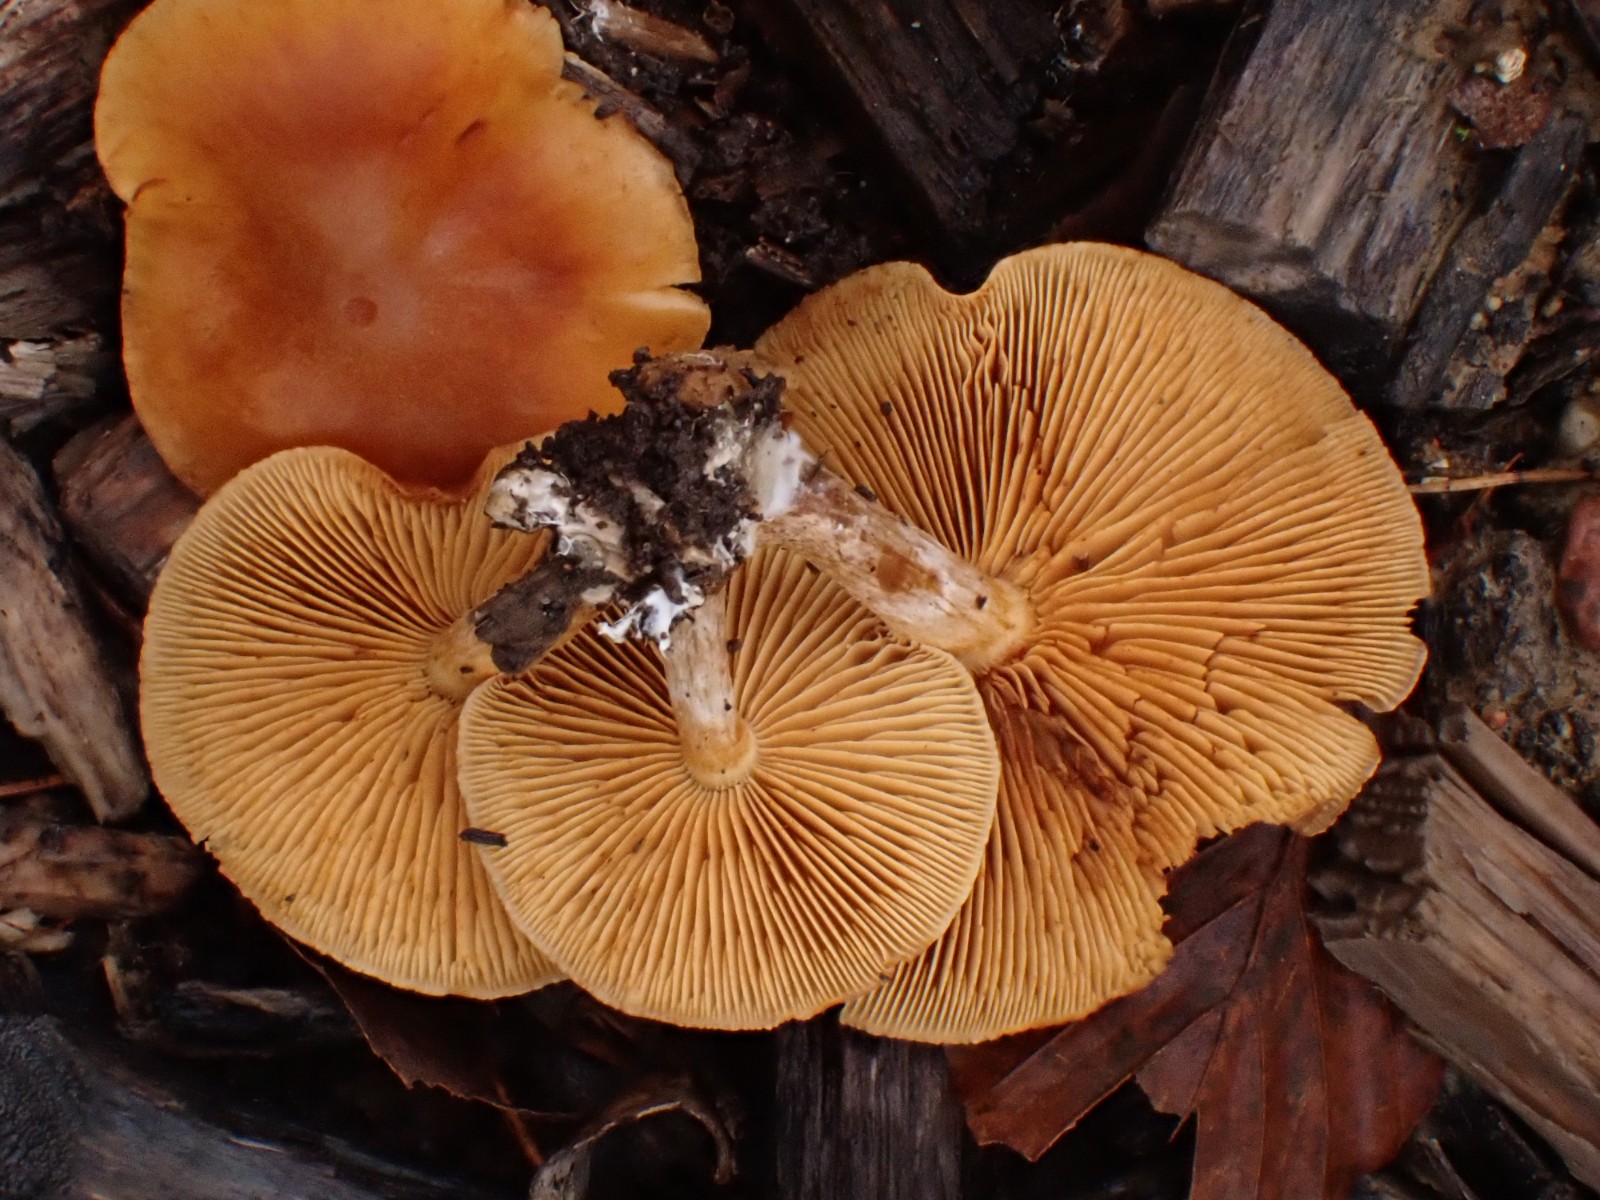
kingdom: Fungi
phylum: Basidiomycota
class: Agaricomycetes
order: Agaricales
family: Hymenogastraceae
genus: Gymnopilus
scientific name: Gymnopilus penetrans
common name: plettet flammehat
